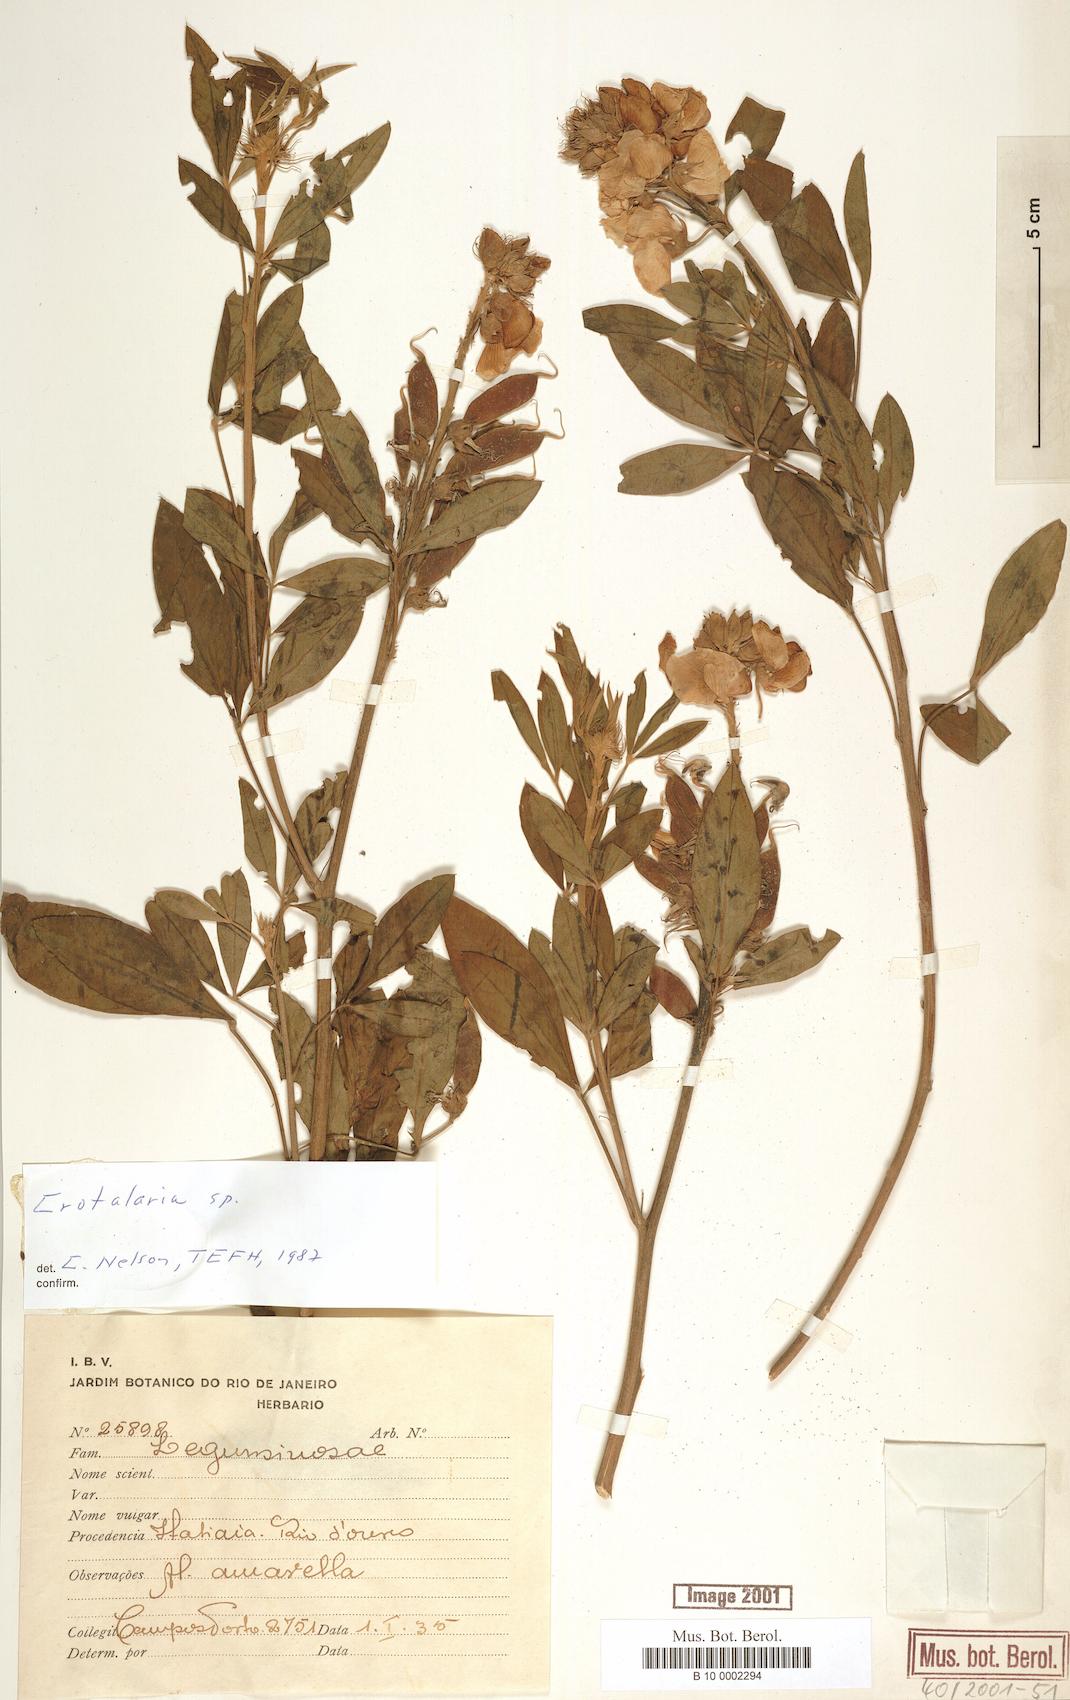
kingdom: Plantae
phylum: Tracheophyta
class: Magnoliopsida
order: Fabales
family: Fabaceae
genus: Crotalaria
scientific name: Crotalaria micans
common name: Caracas rattlebox
